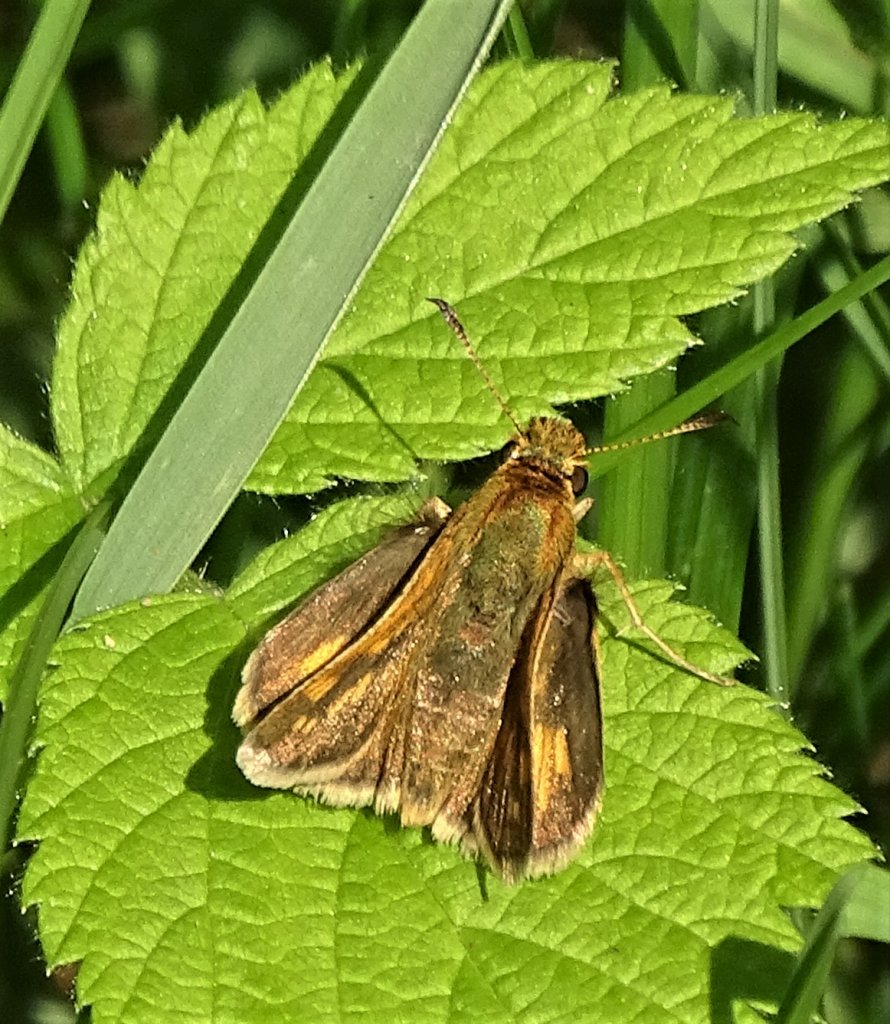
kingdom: Animalia
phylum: Arthropoda
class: Insecta
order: Lepidoptera
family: Hesperiidae
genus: Polites
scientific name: Polites coras
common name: Peck's Skipper
